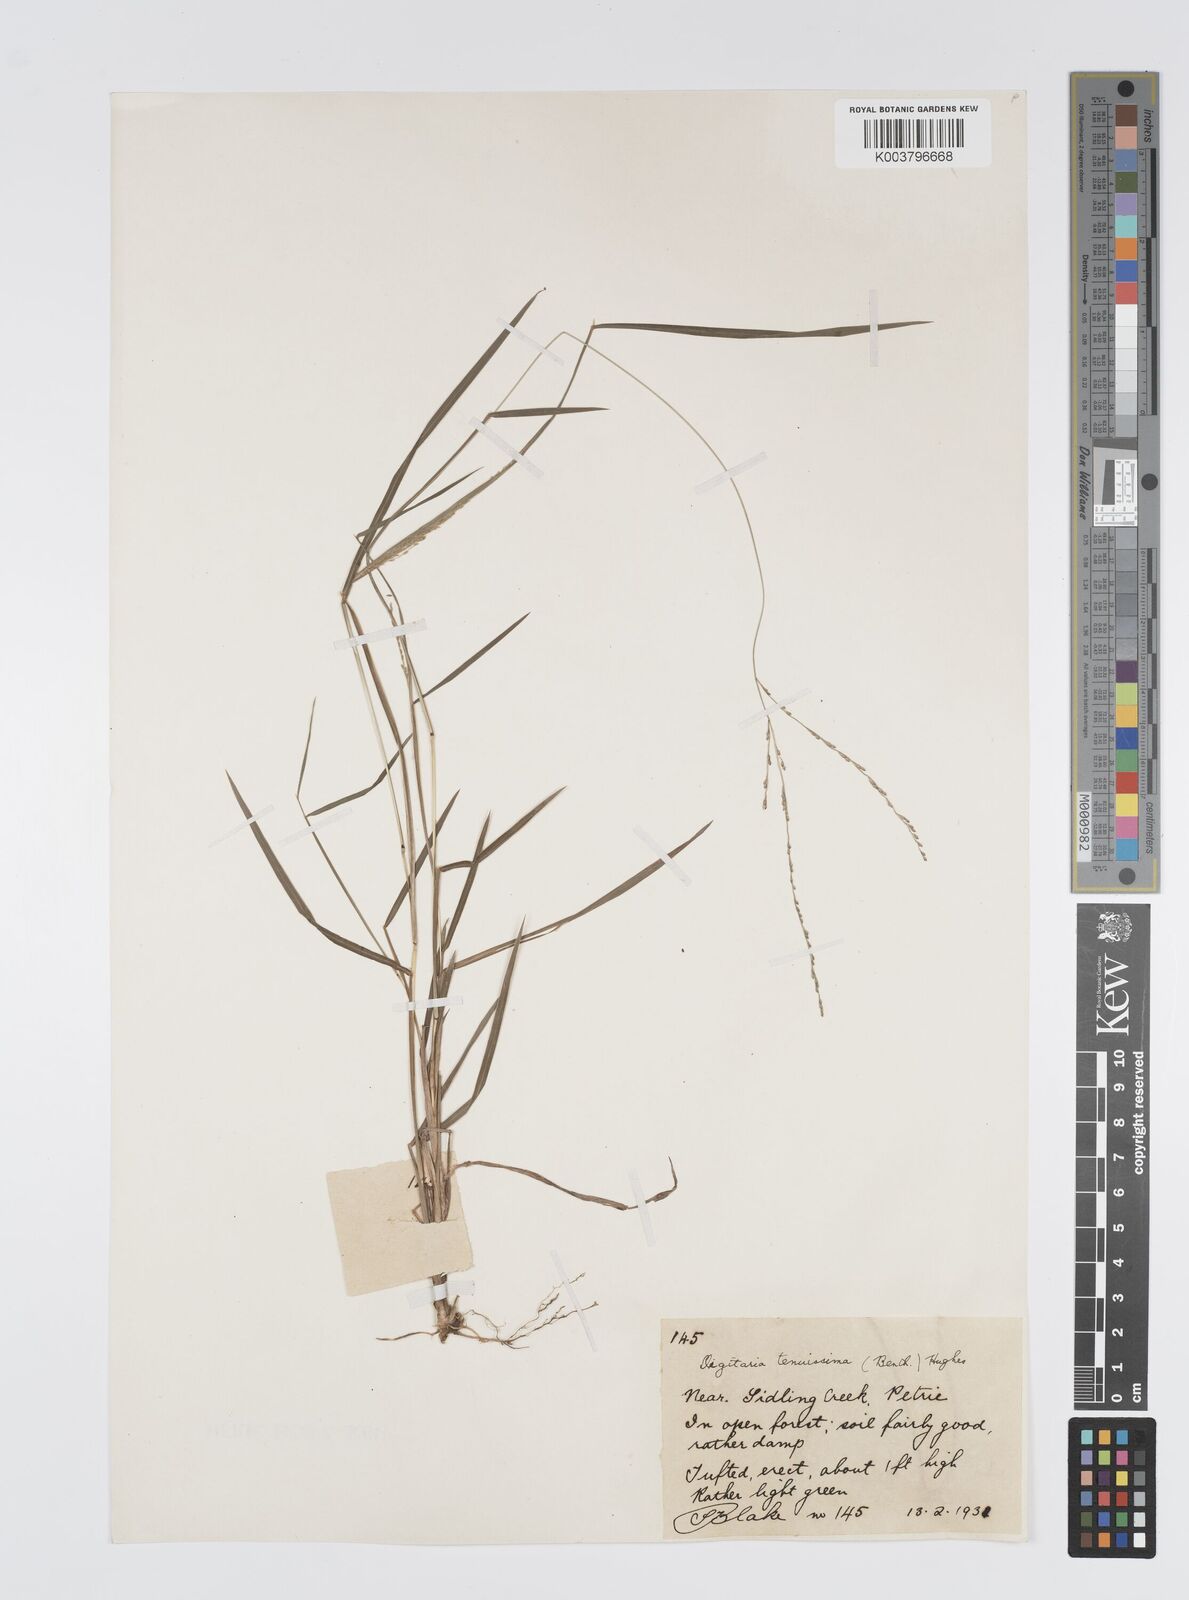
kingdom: Plantae
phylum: Tracheophyta
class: Liliopsida
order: Poales
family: Poaceae
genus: Digitaria
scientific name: Digitaria ramularis
